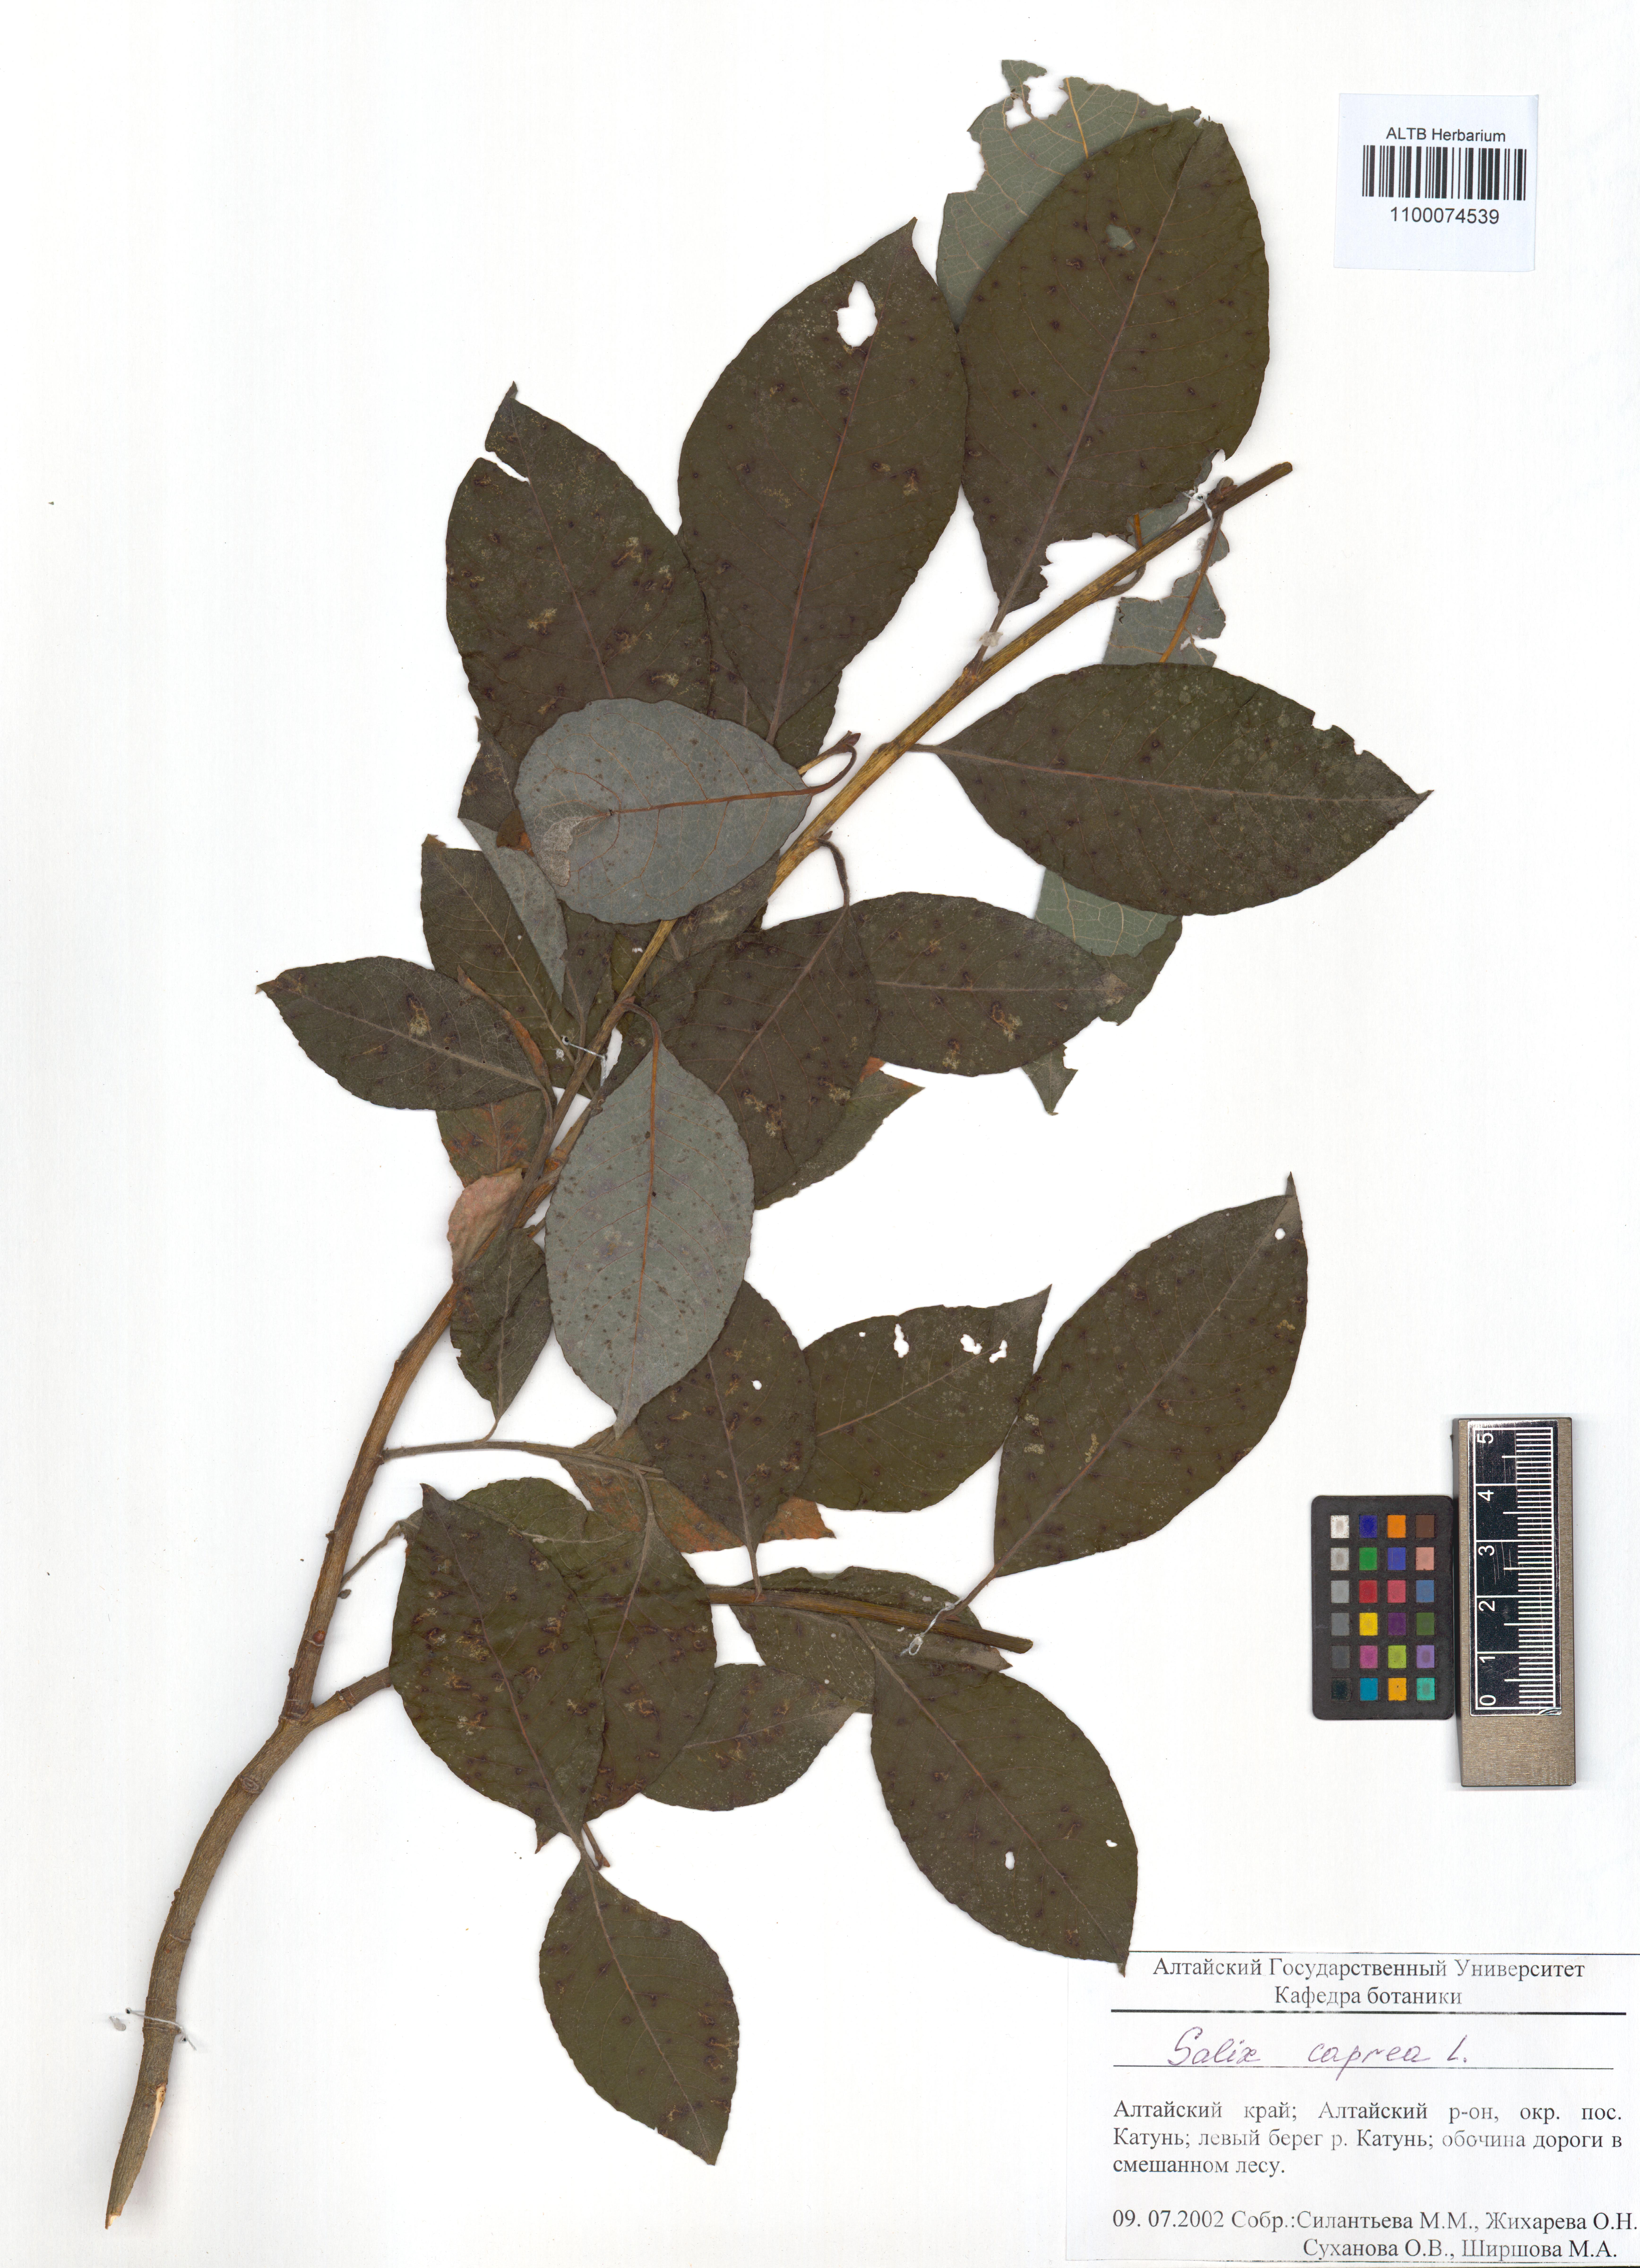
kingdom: Plantae
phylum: Tracheophyta
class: Magnoliopsida
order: Malpighiales
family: Salicaceae
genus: Salix
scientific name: Salix caprea
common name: Goat willow
